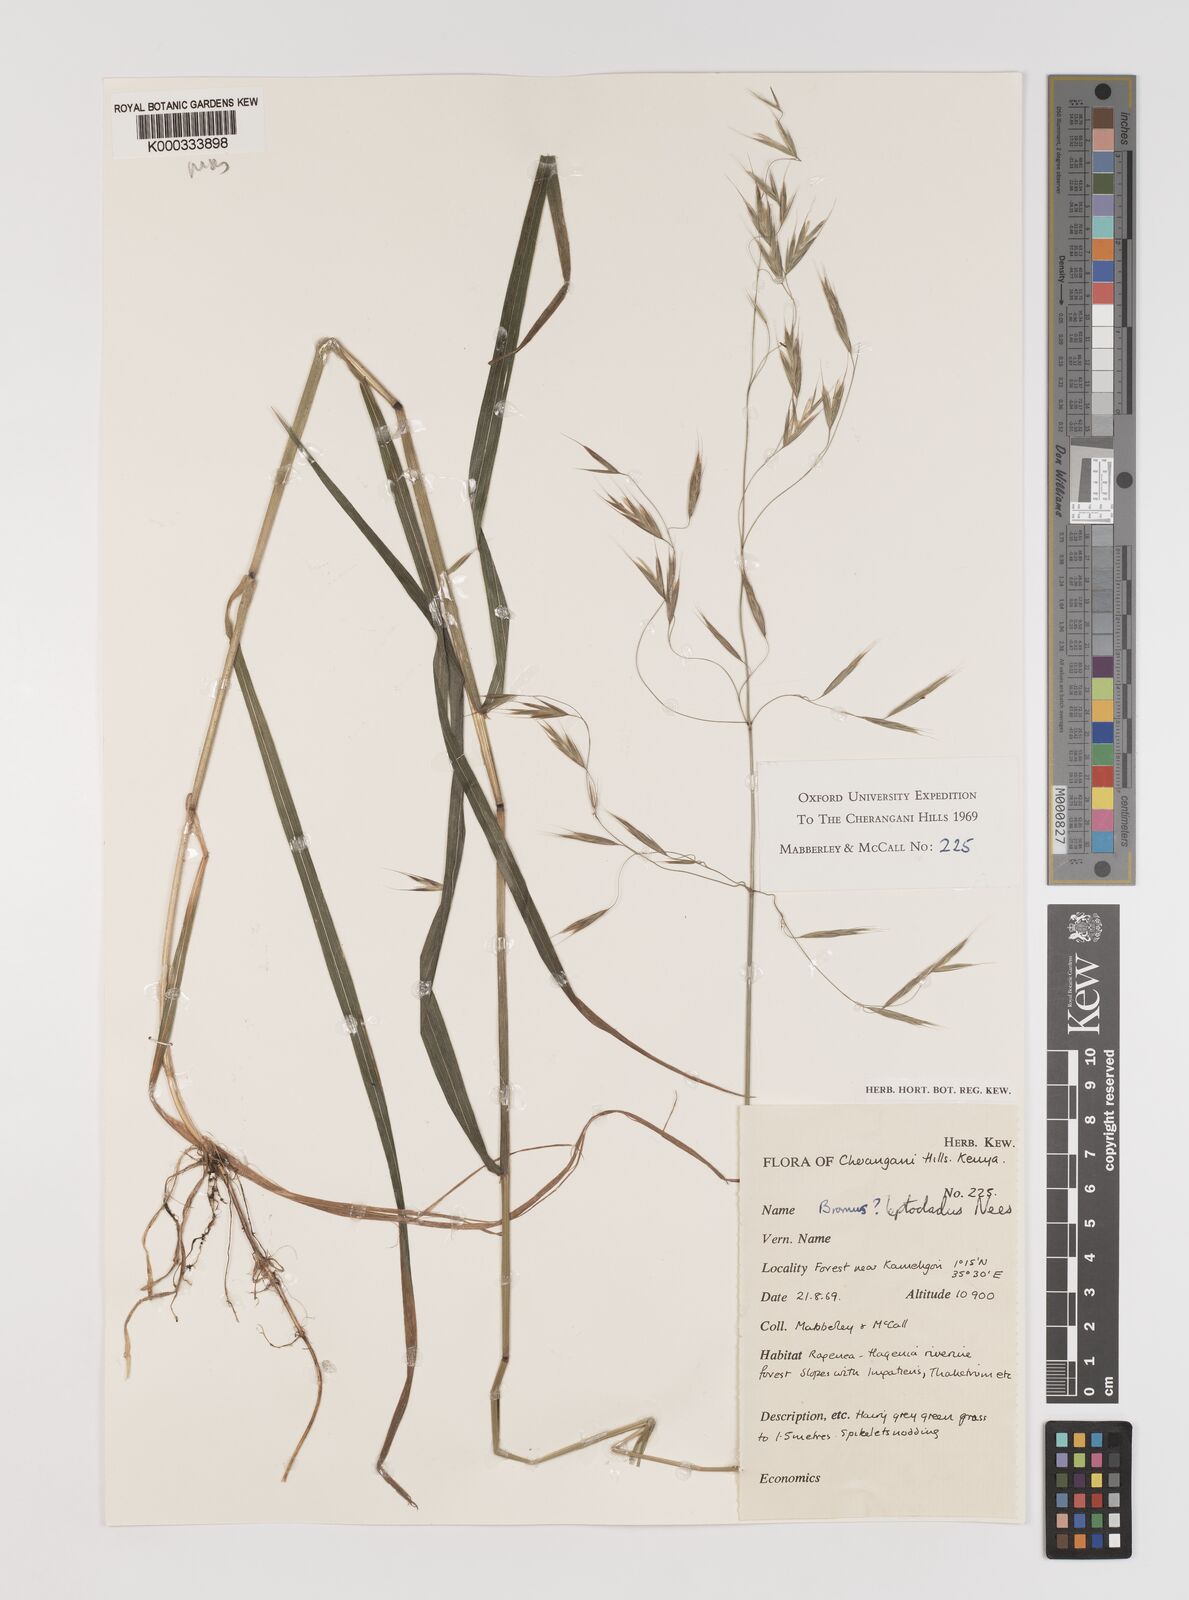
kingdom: Plantae
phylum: Tracheophyta
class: Liliopsida
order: Poales
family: Poaceae
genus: Bromus
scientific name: Bromus leptoclados
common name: Mountain bromegrass
